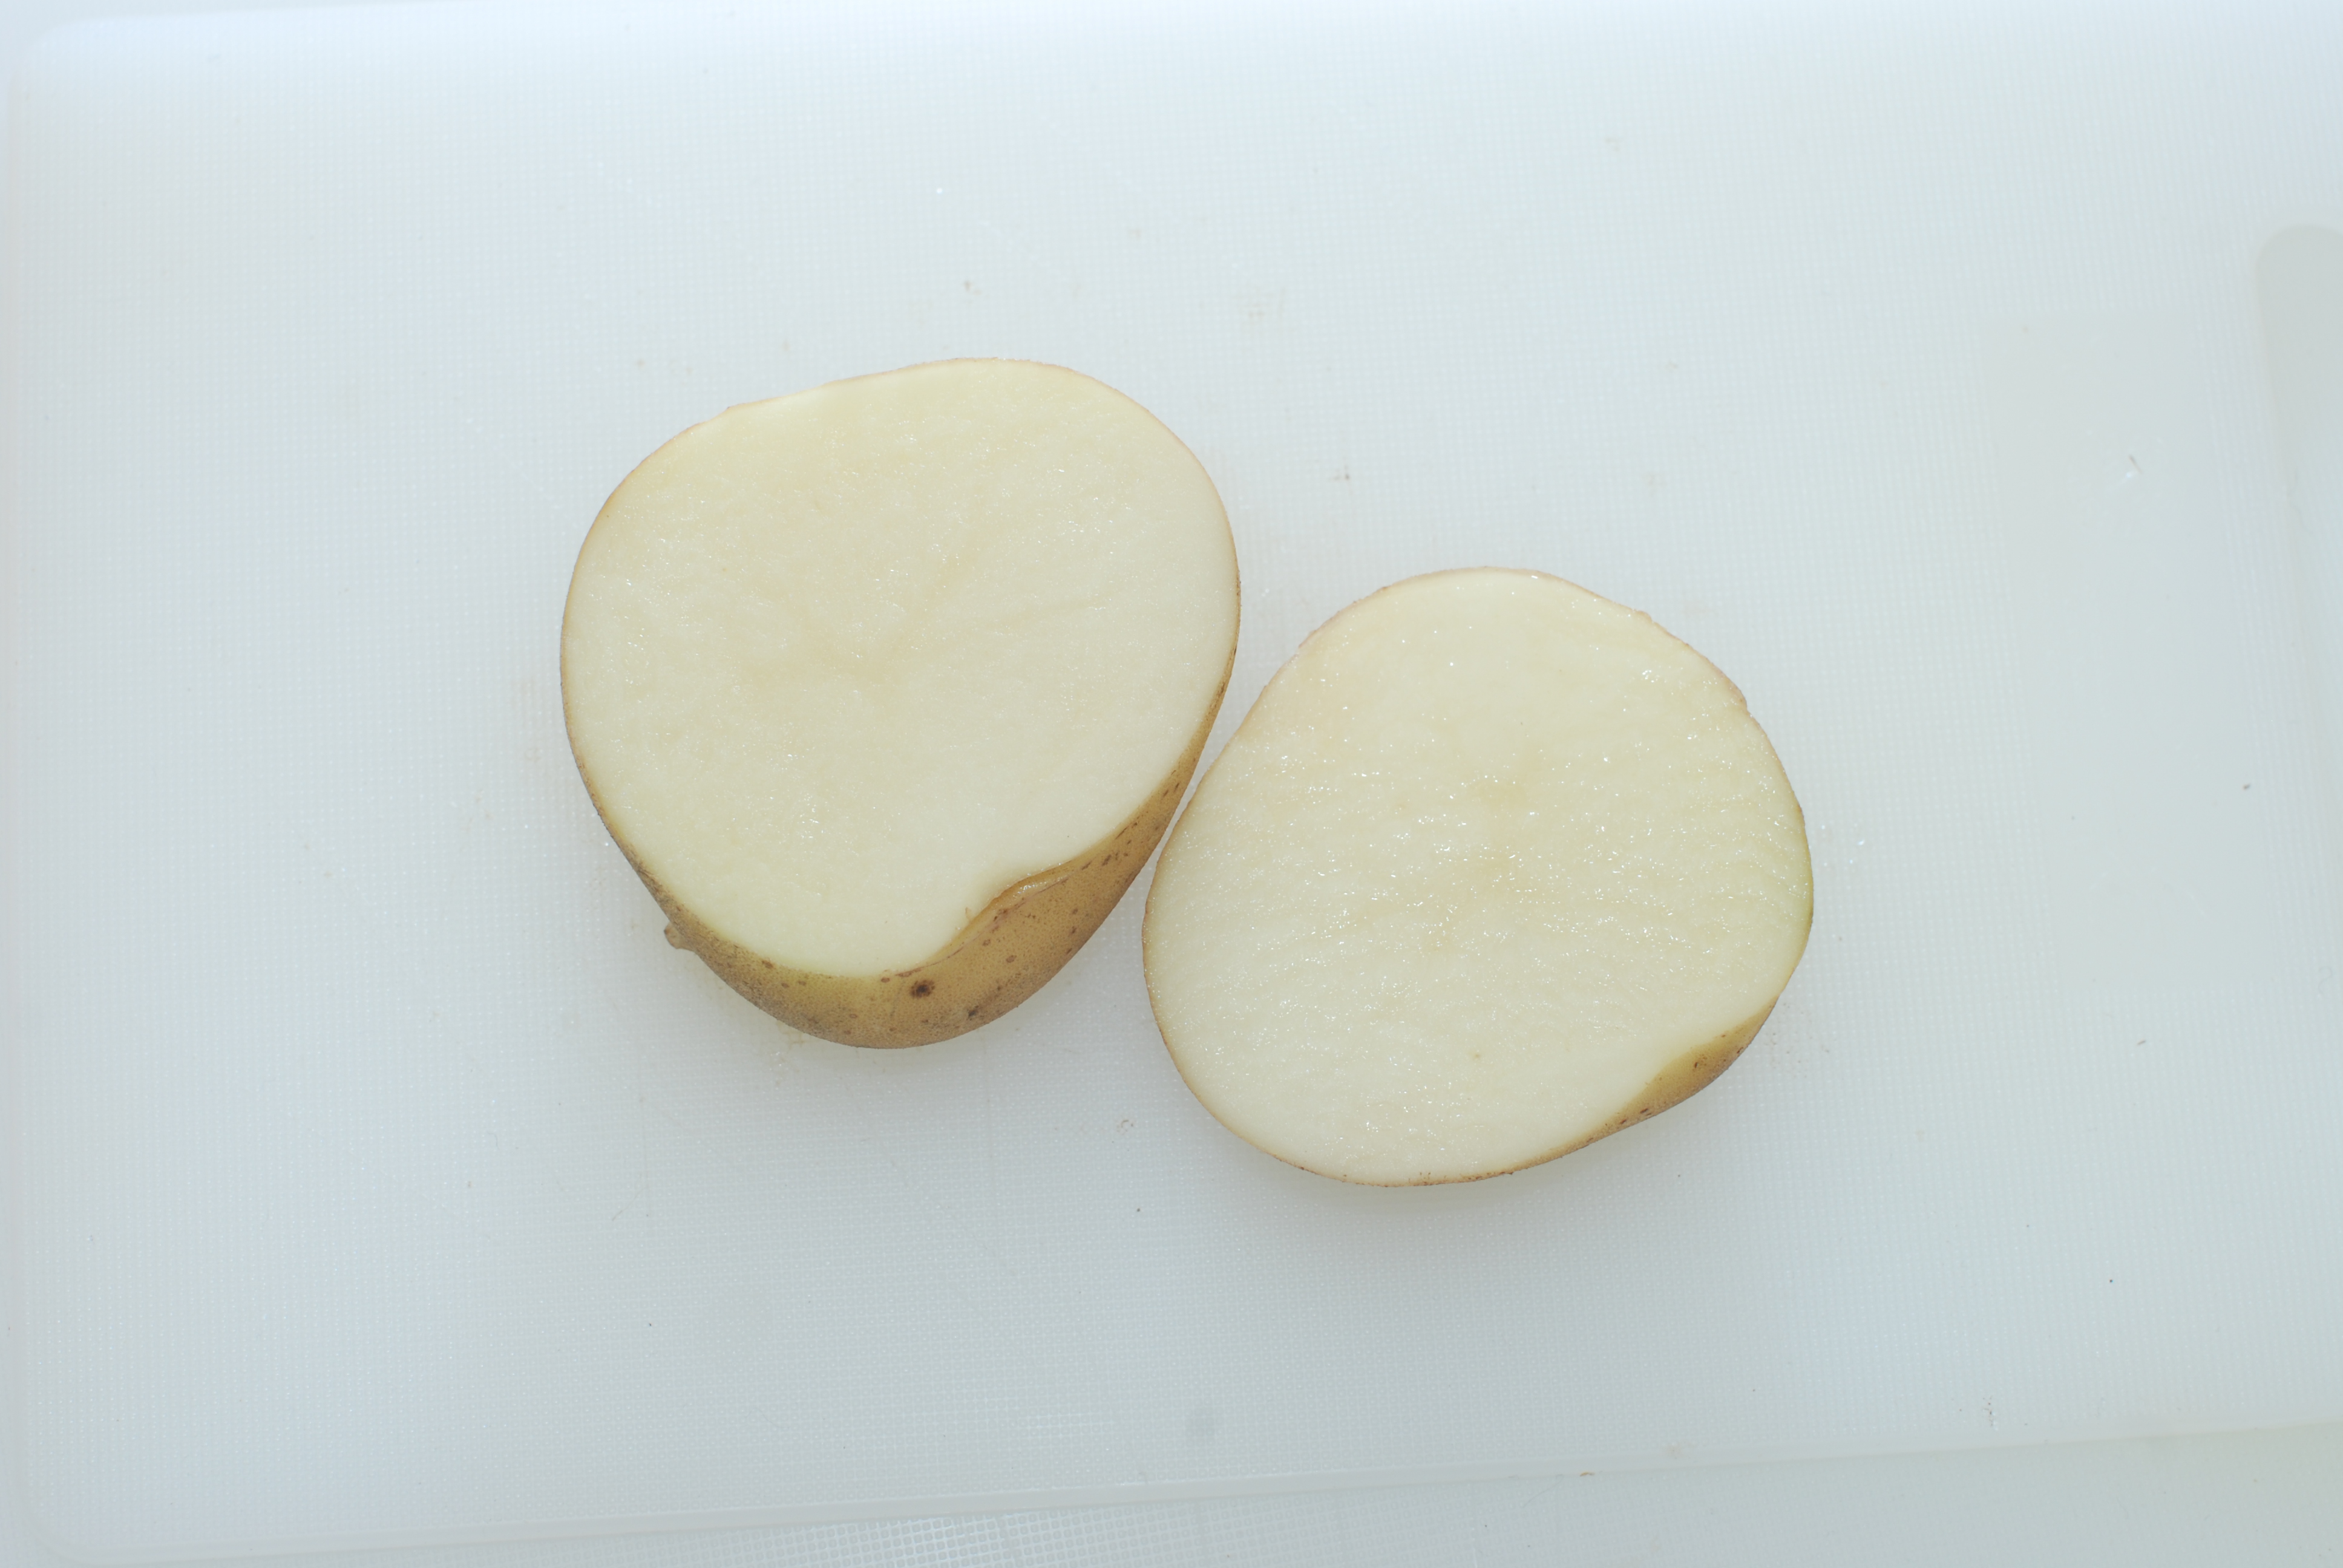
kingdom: Plantae
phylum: Tracheophyta
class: Magnoliopsida
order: Solanales
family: Solanaceae
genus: Solanum
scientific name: Solanum tuberosum
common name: Potato
